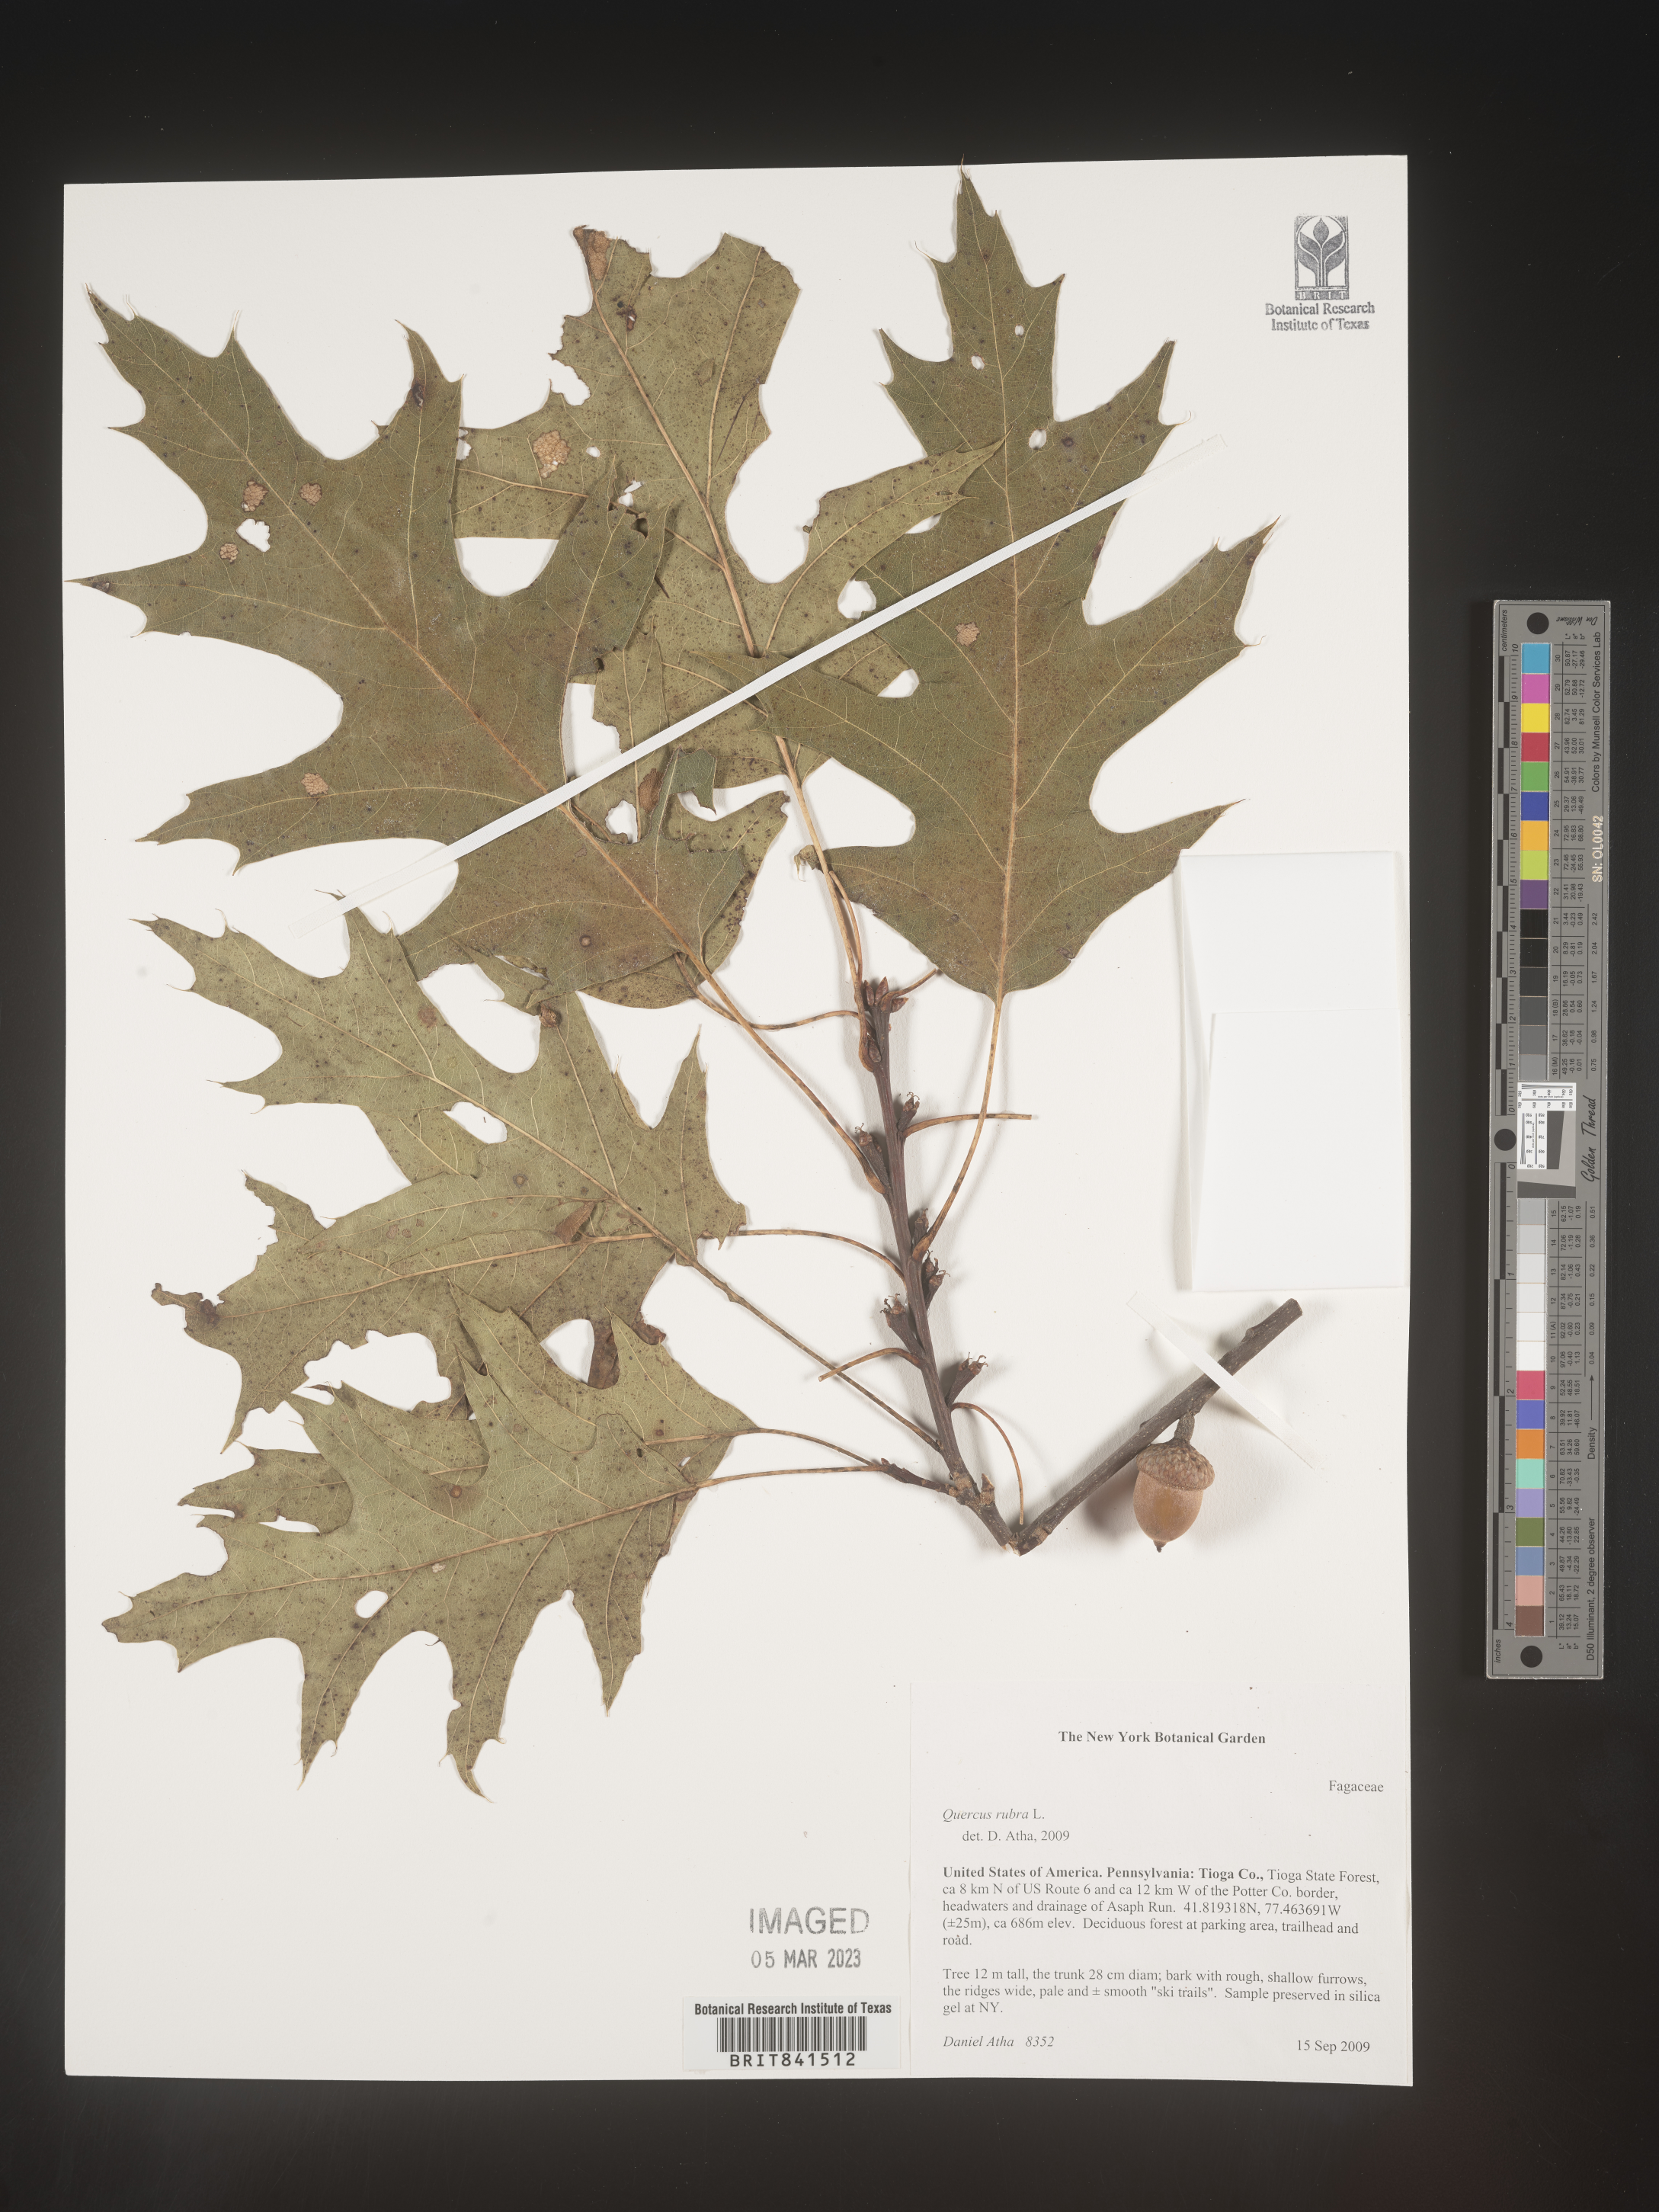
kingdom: Plantae
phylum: Tracheophyta
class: Magnoliopsida
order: Fagales
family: Fagaceae
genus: Quercus
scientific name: Quercus rubra
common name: Red oak
